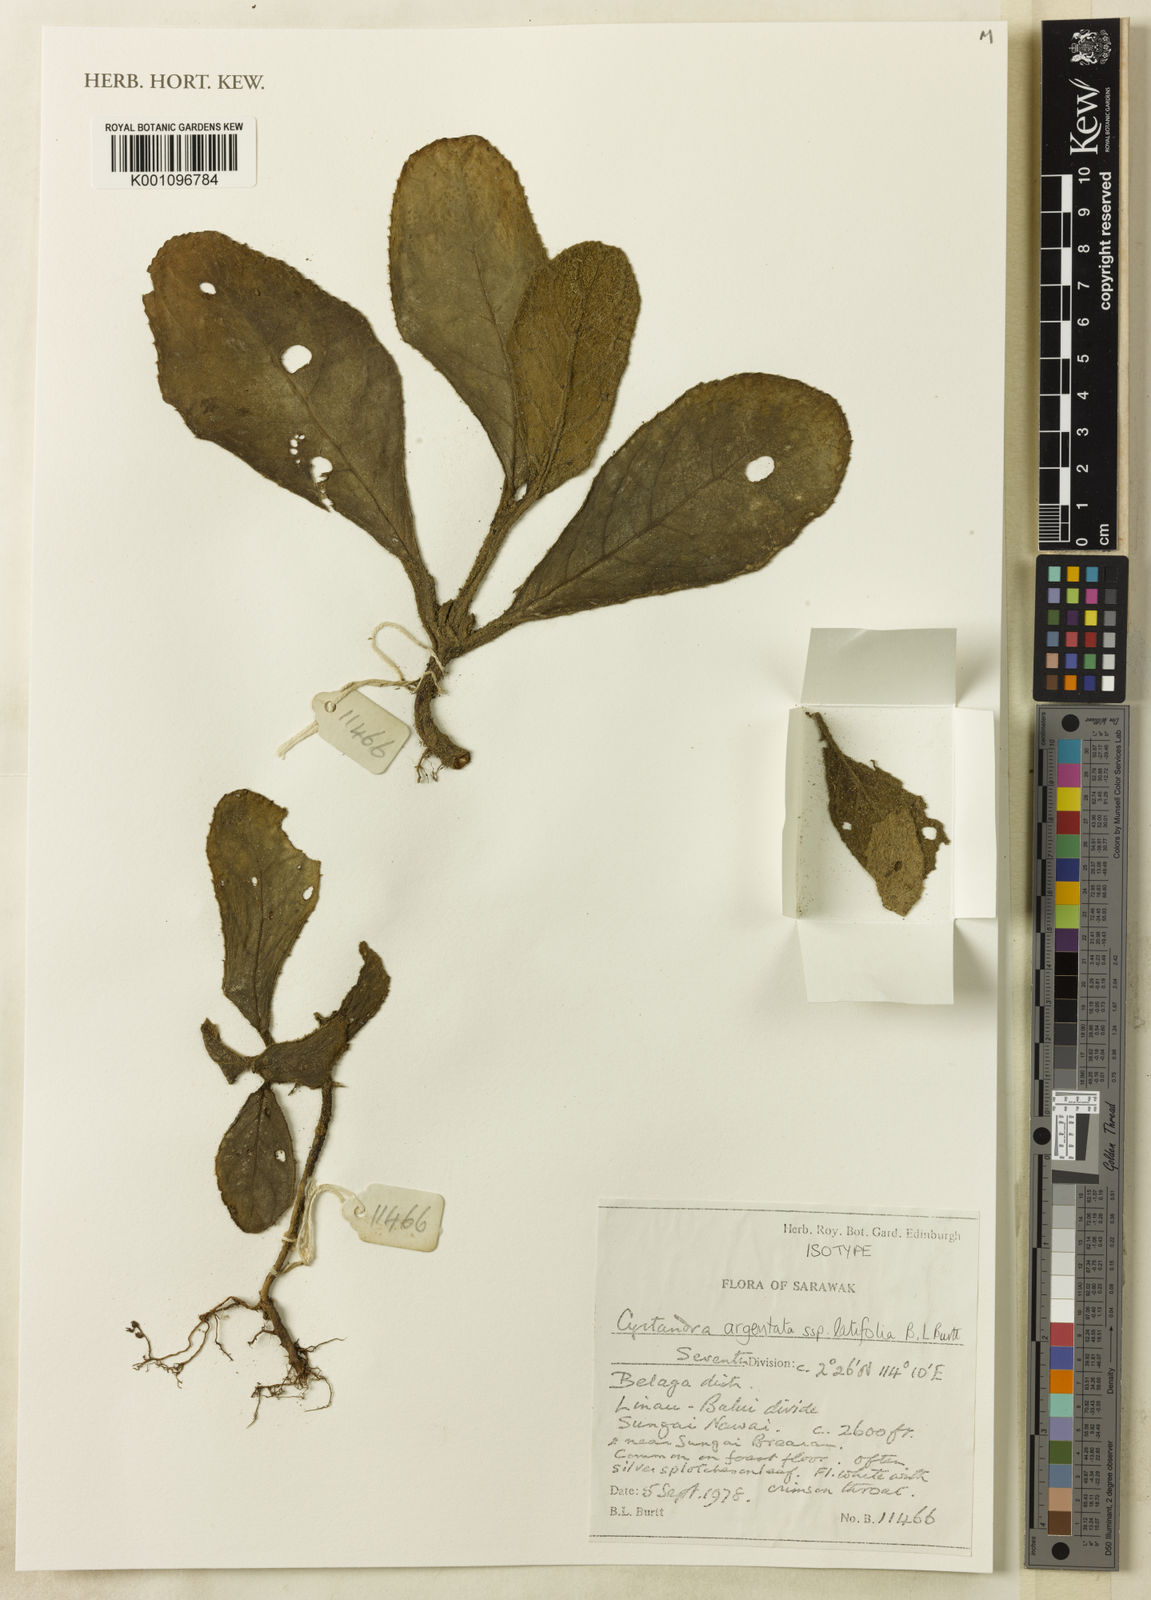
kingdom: Plantae
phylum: Tracheophyta
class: Magnoliopsida
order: Lamiales
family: Gesneriaceae
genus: Cyrtandra
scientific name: Cyrtandra argentata
